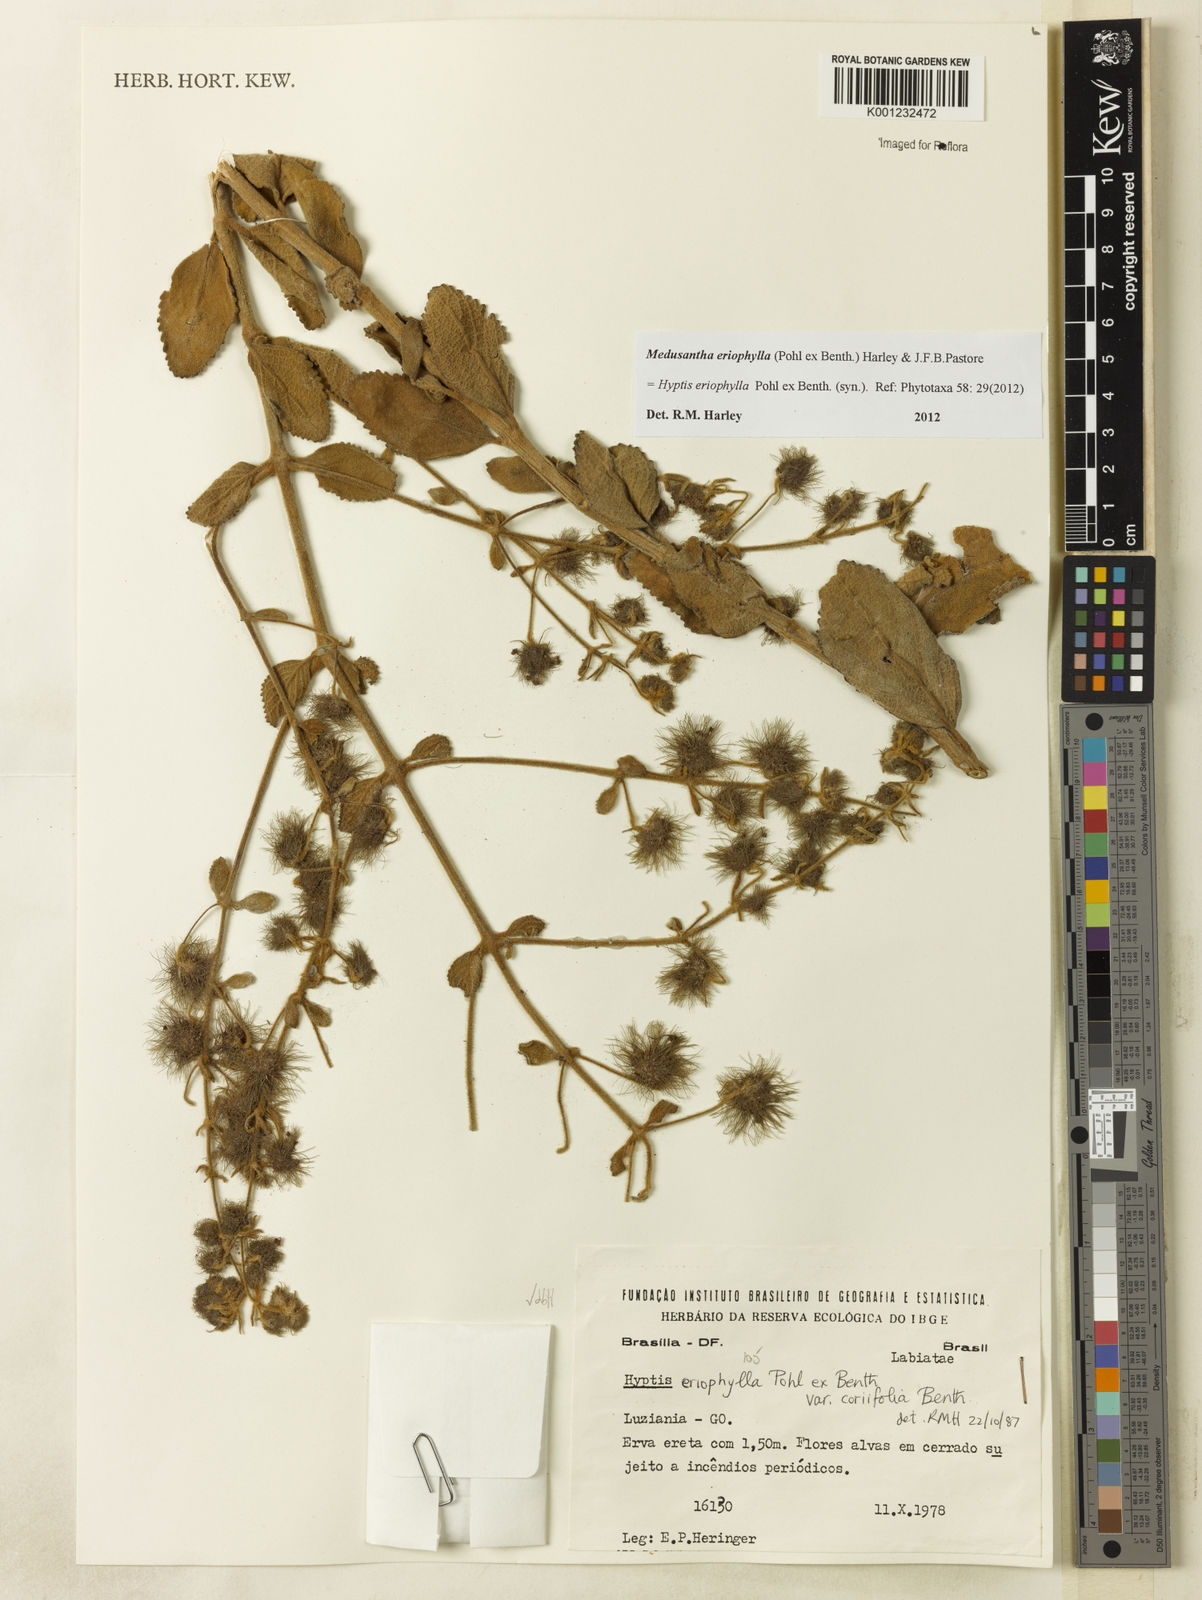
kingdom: Plantae
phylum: Tracheophyta
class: Magnoliopsida
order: Lamiales
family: Lamiaceae
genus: Medusantha
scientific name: Medusantha eriophylla
